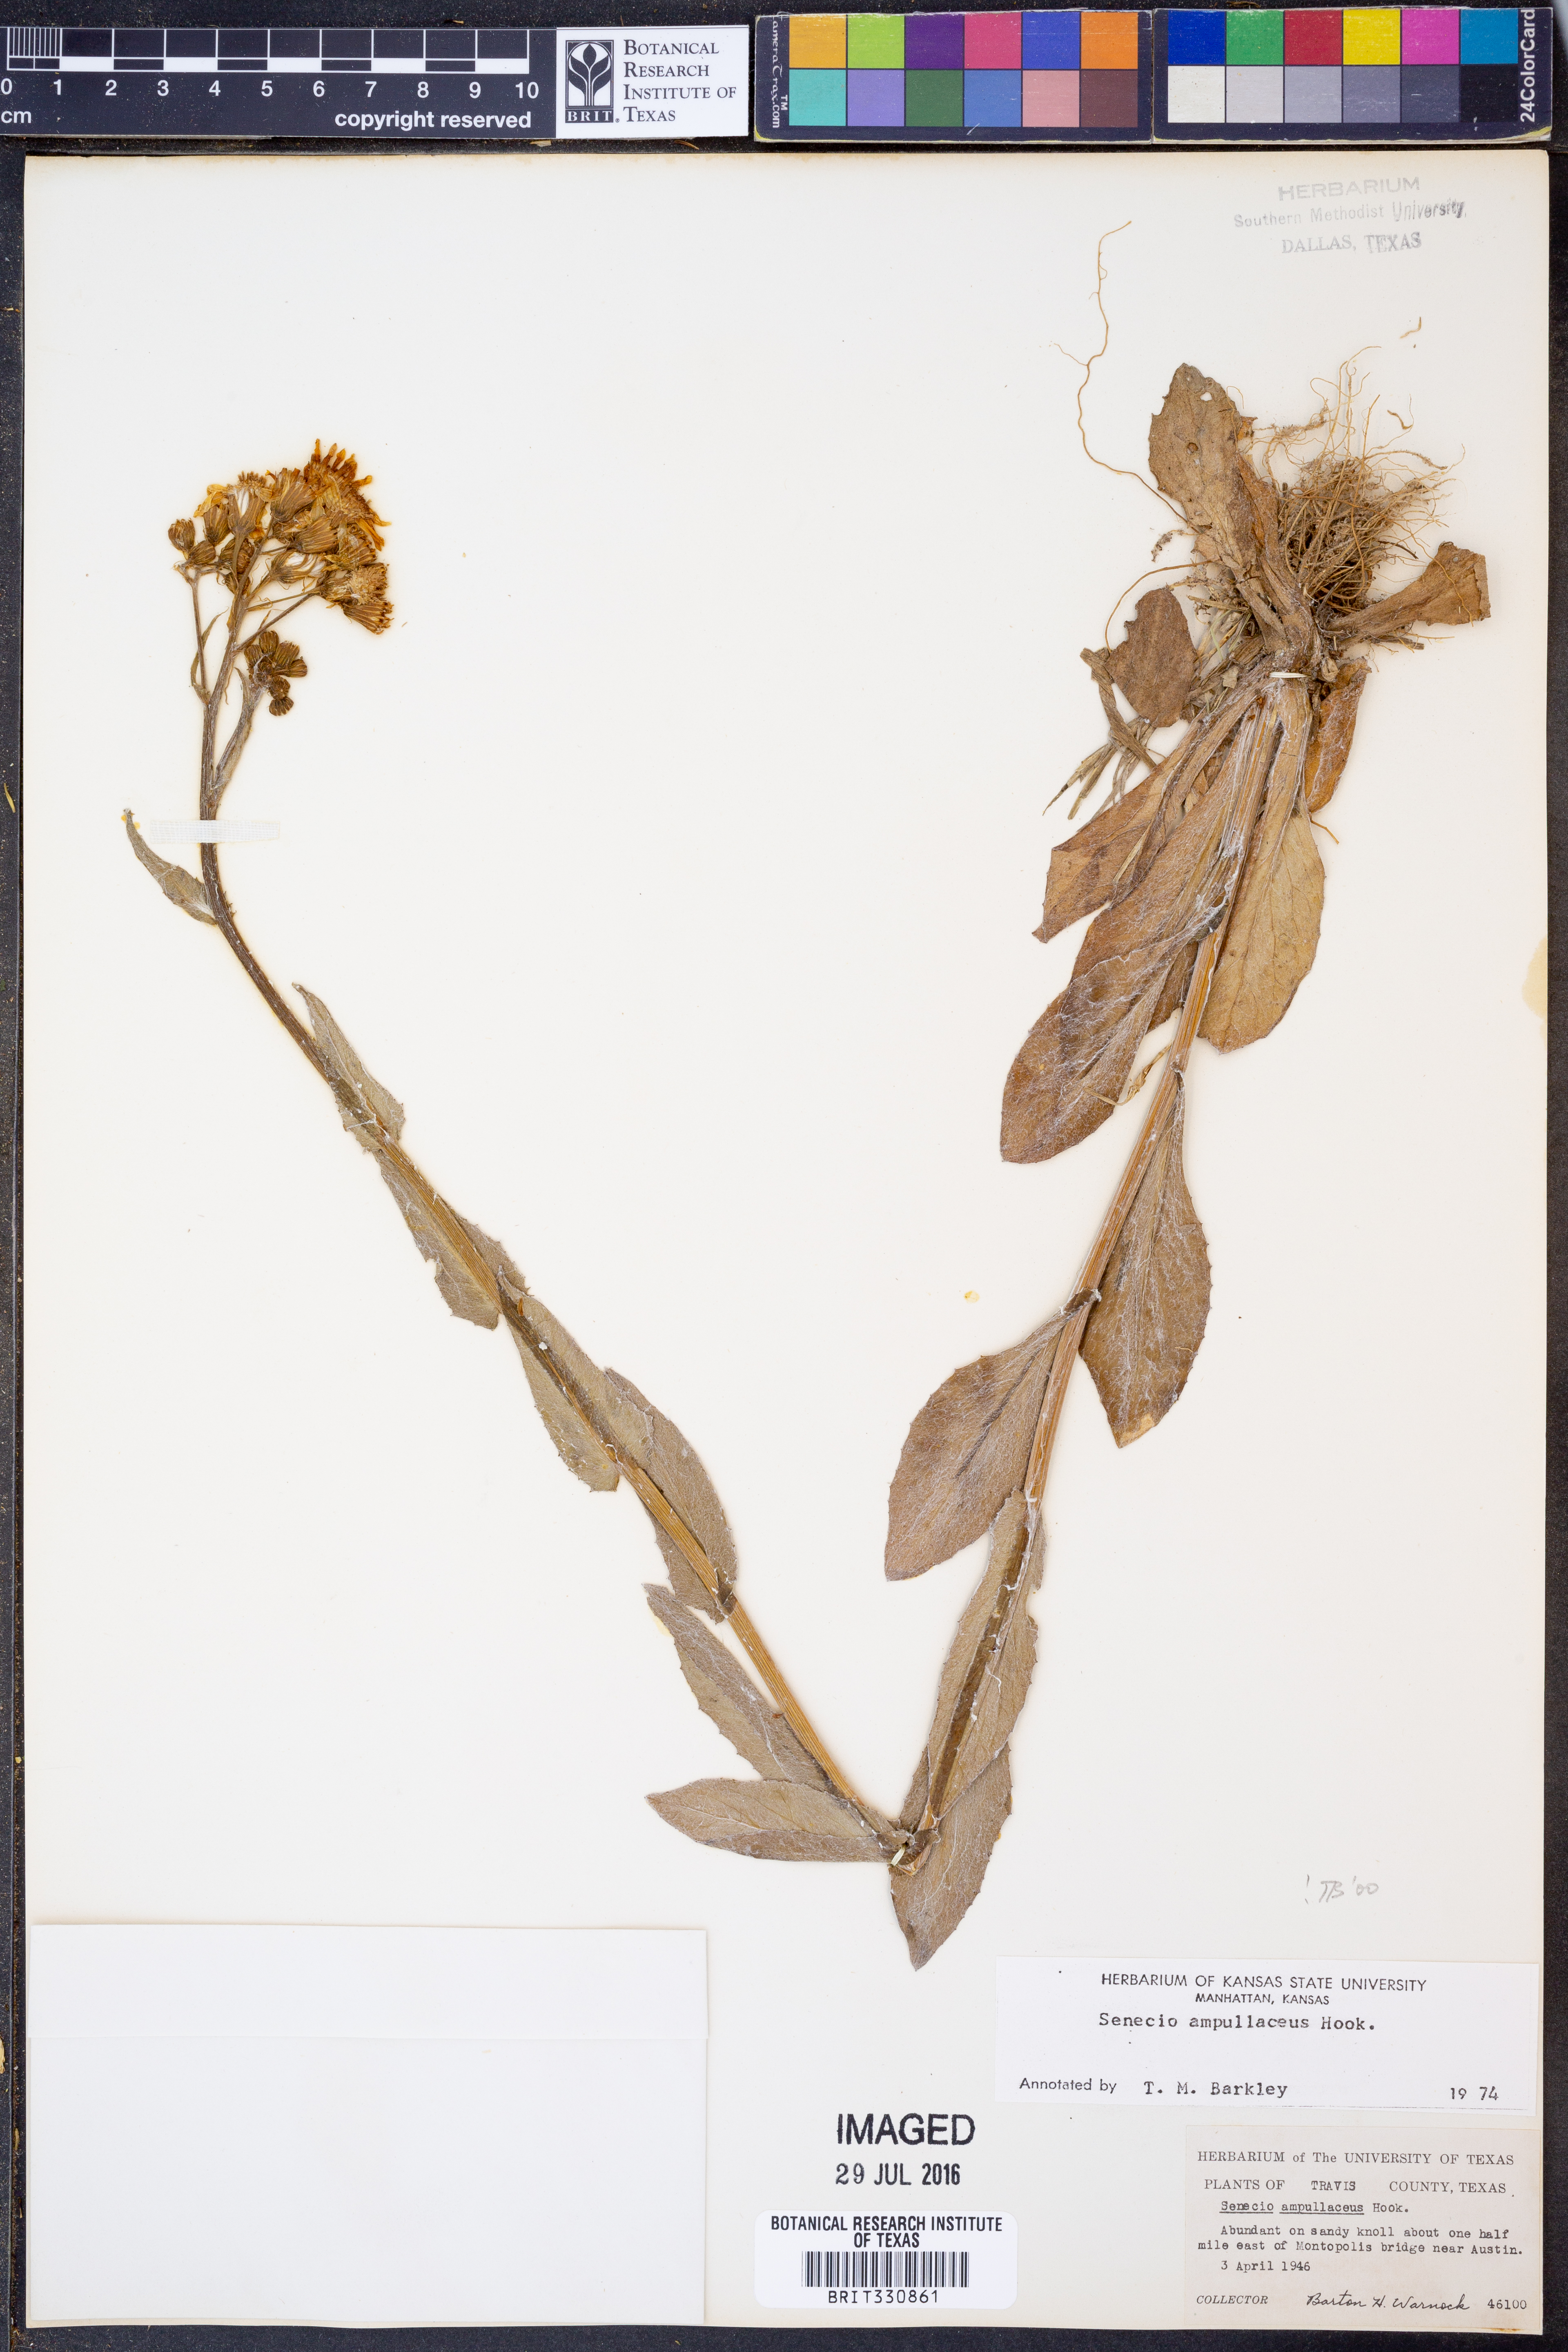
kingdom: Plantae
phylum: Tracheophyta
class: Magnoliopsida
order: Asterales
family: Asteraceae
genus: Senecio
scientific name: Senecio ampullaceus
